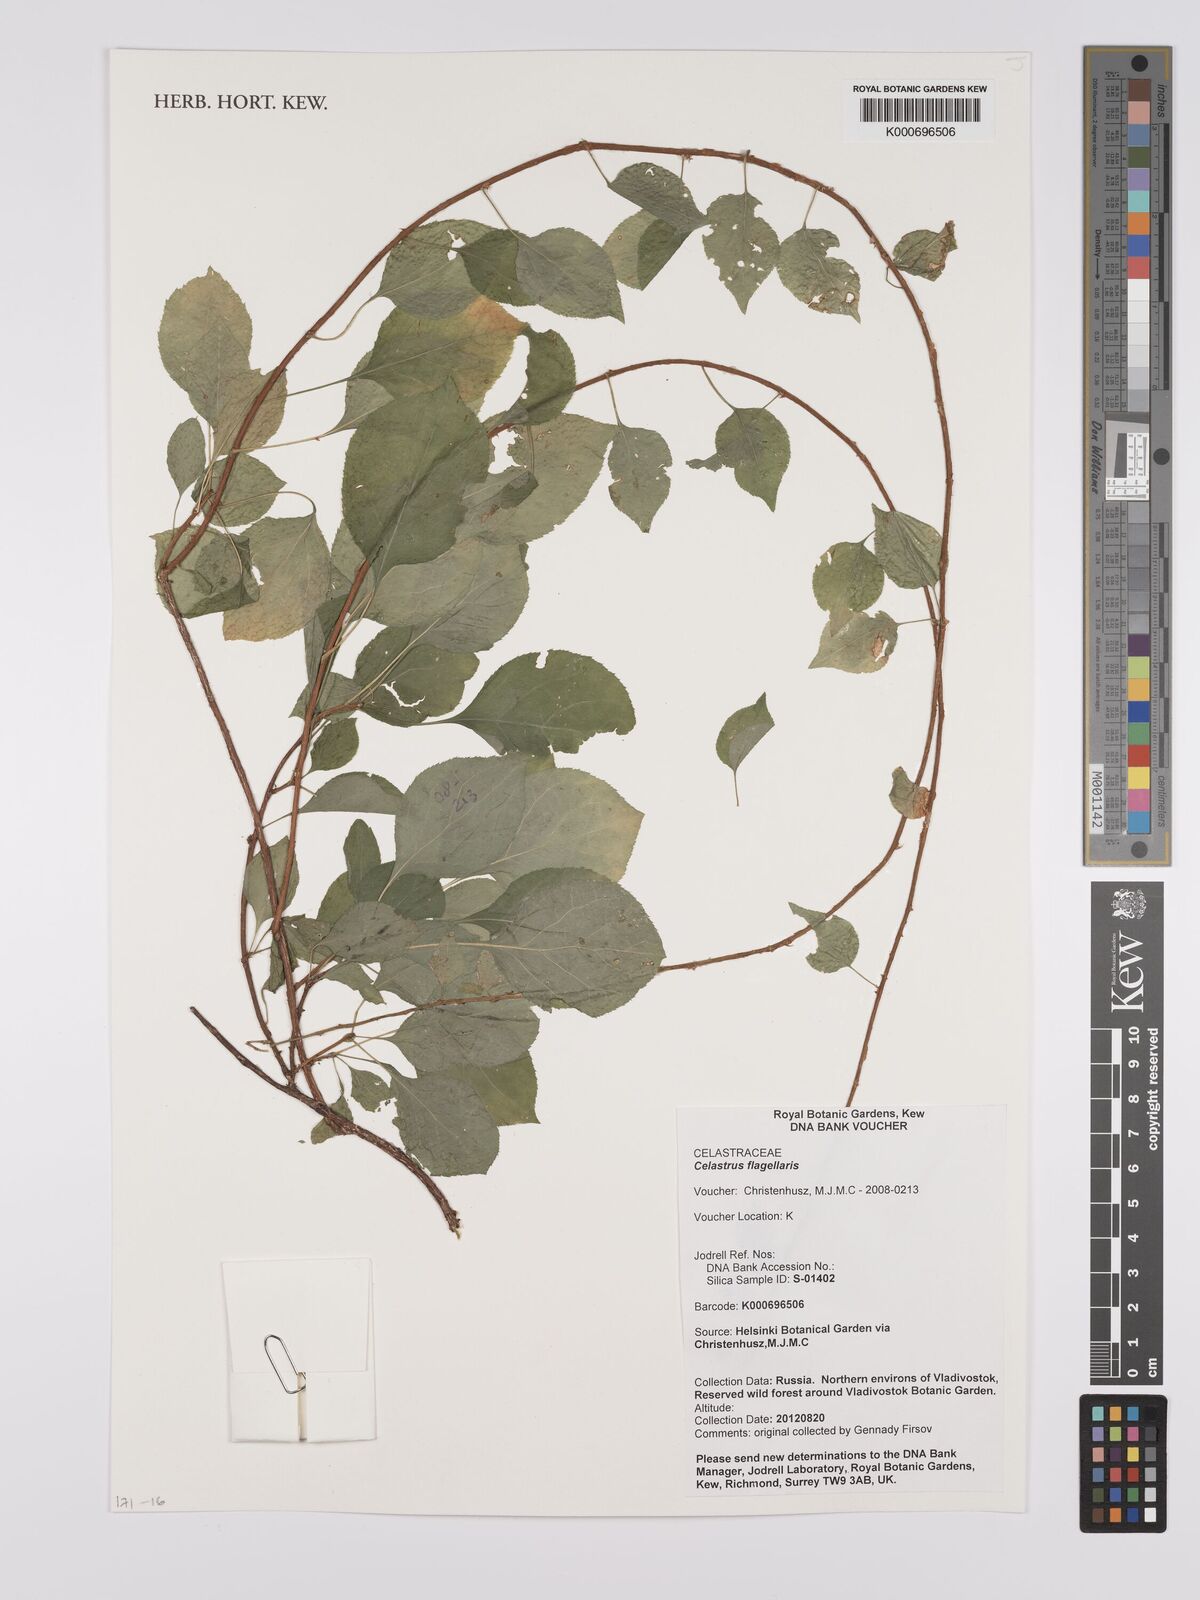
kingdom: Plantae
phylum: Tracheophyta
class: Magnoliopsida
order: Celastrales
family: Celastraceae
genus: Celastrus
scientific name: Celastrus flagellaris
